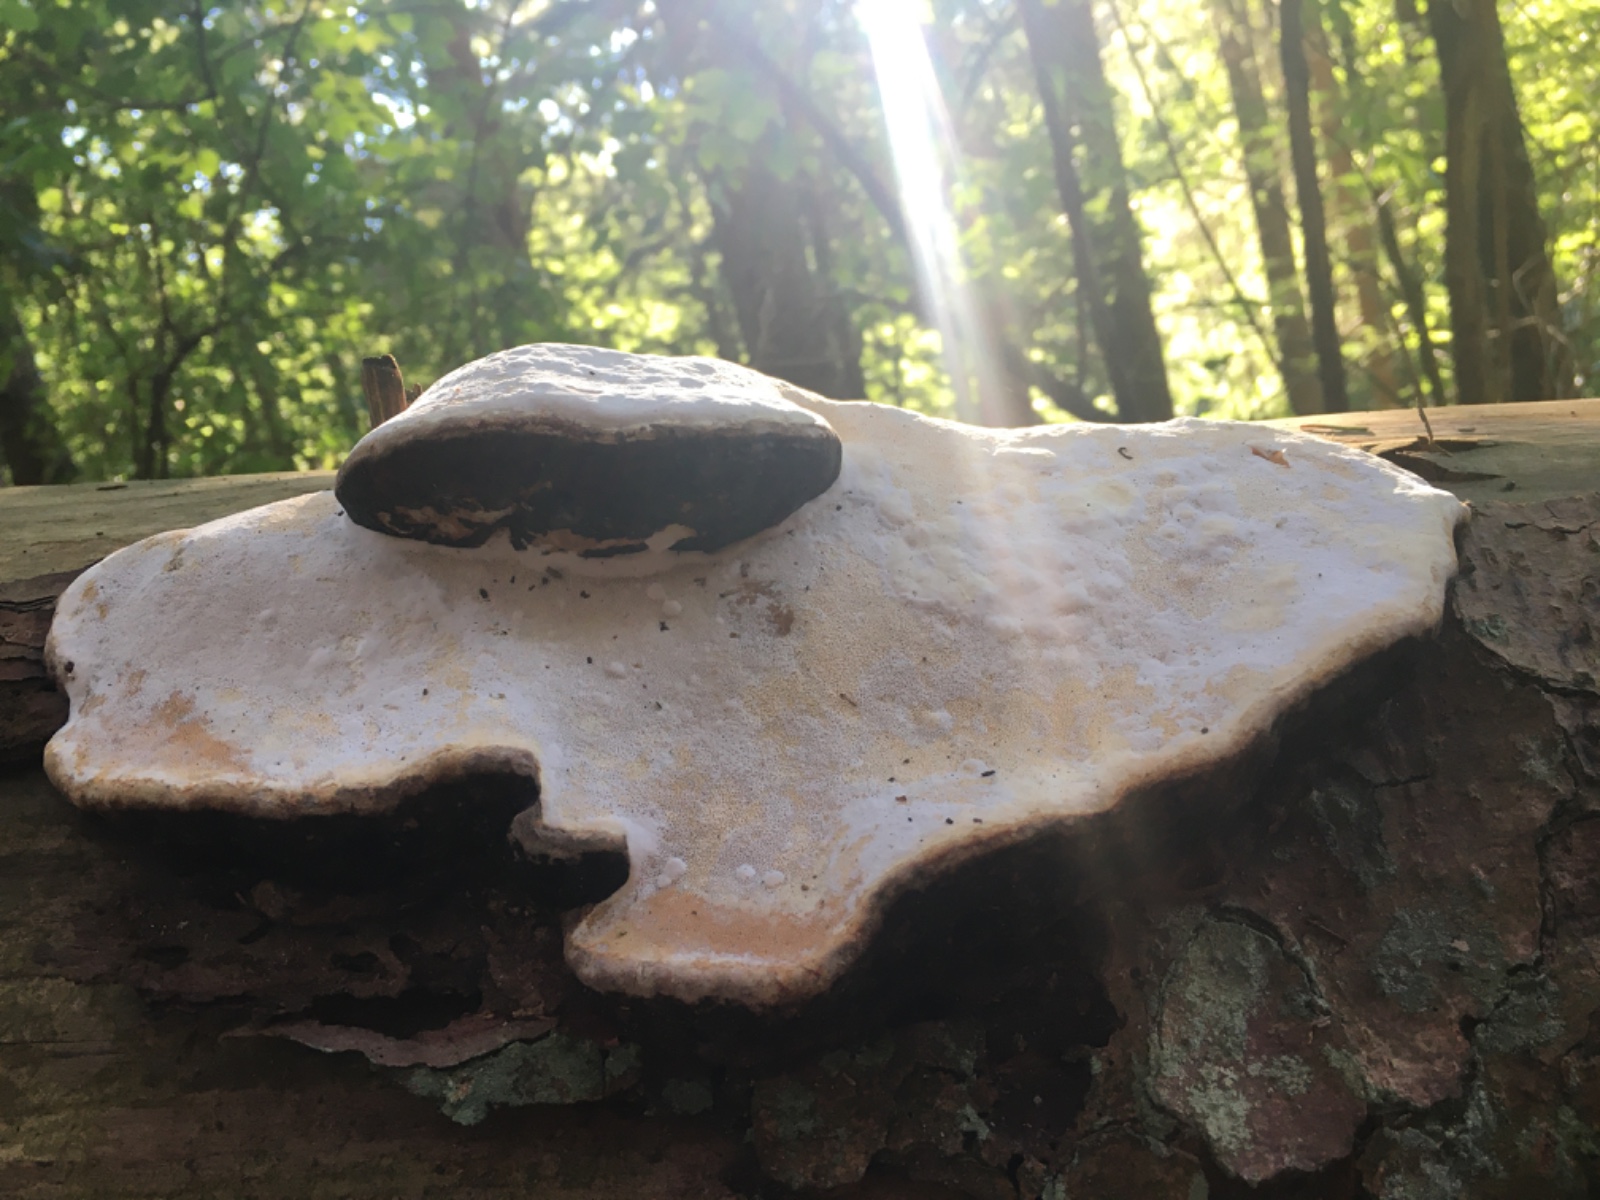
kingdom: Fungi
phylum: Basidiomycota
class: Agaricomycetes
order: Polyporales
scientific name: Polyporales
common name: poresvampordenen
